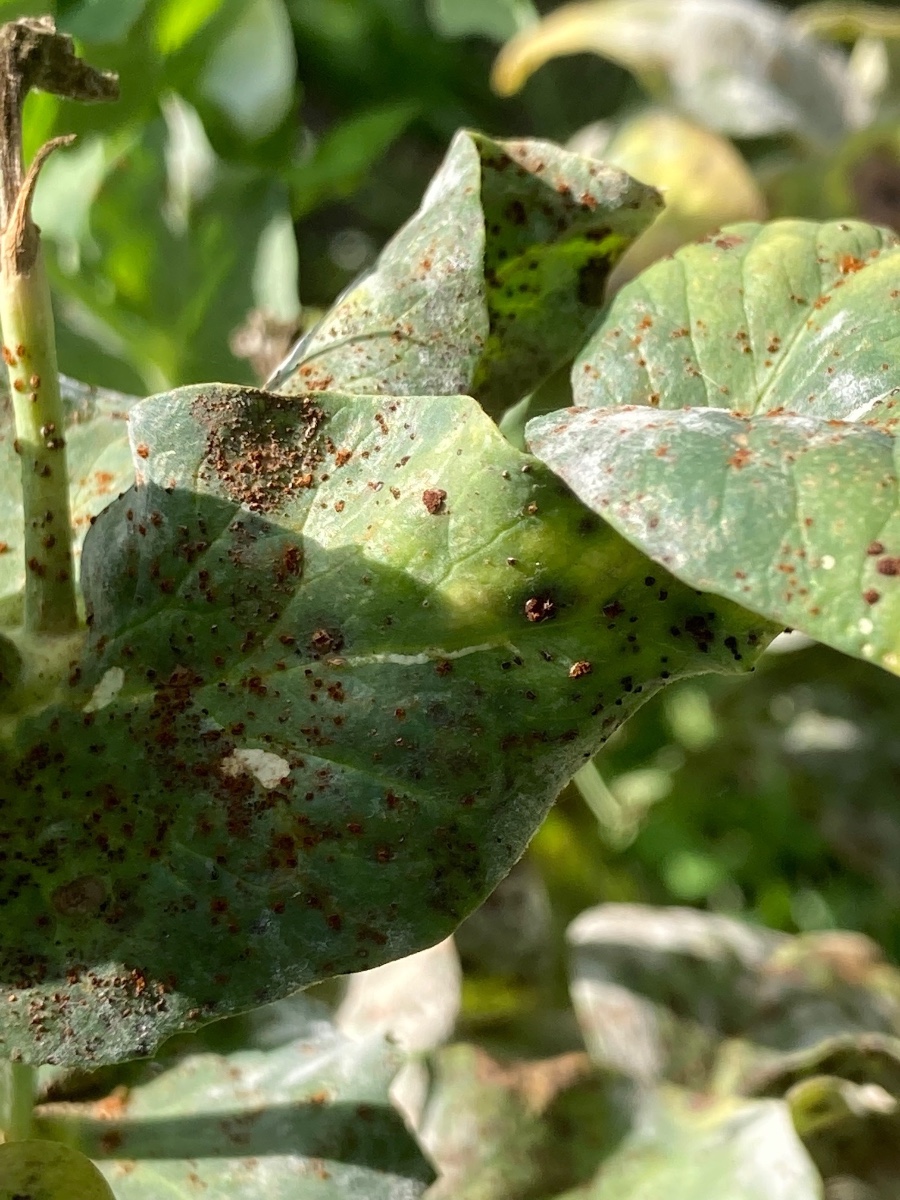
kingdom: Fungi
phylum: Basidiomycota
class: Pucciniomycetes
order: Pucciniales
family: Pucciniaceae
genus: Uromyces
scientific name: Uromyces pisi-sativi
